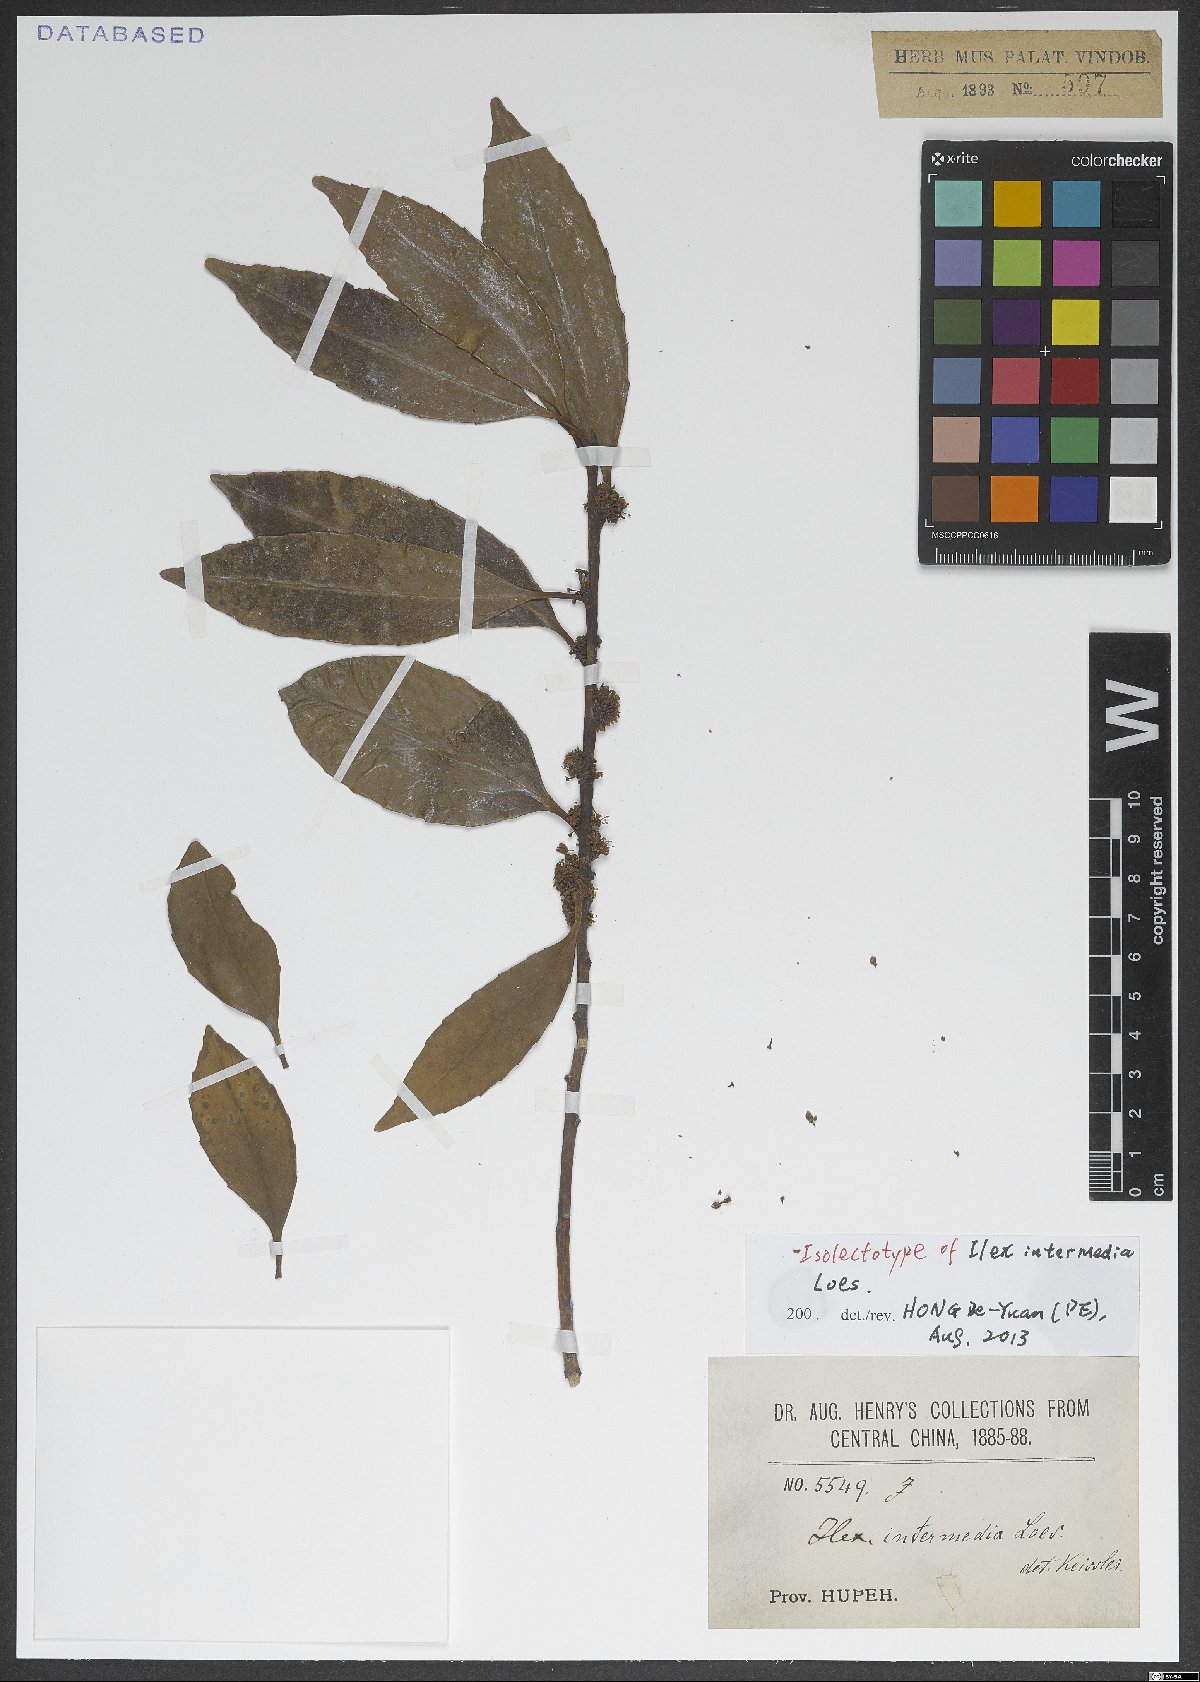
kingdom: Plantae
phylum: Tracheophyta
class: Magnoliopsida
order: Aquifoliales
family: Aquifoliaceae
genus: Ilex
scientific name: Ilex intermedia
